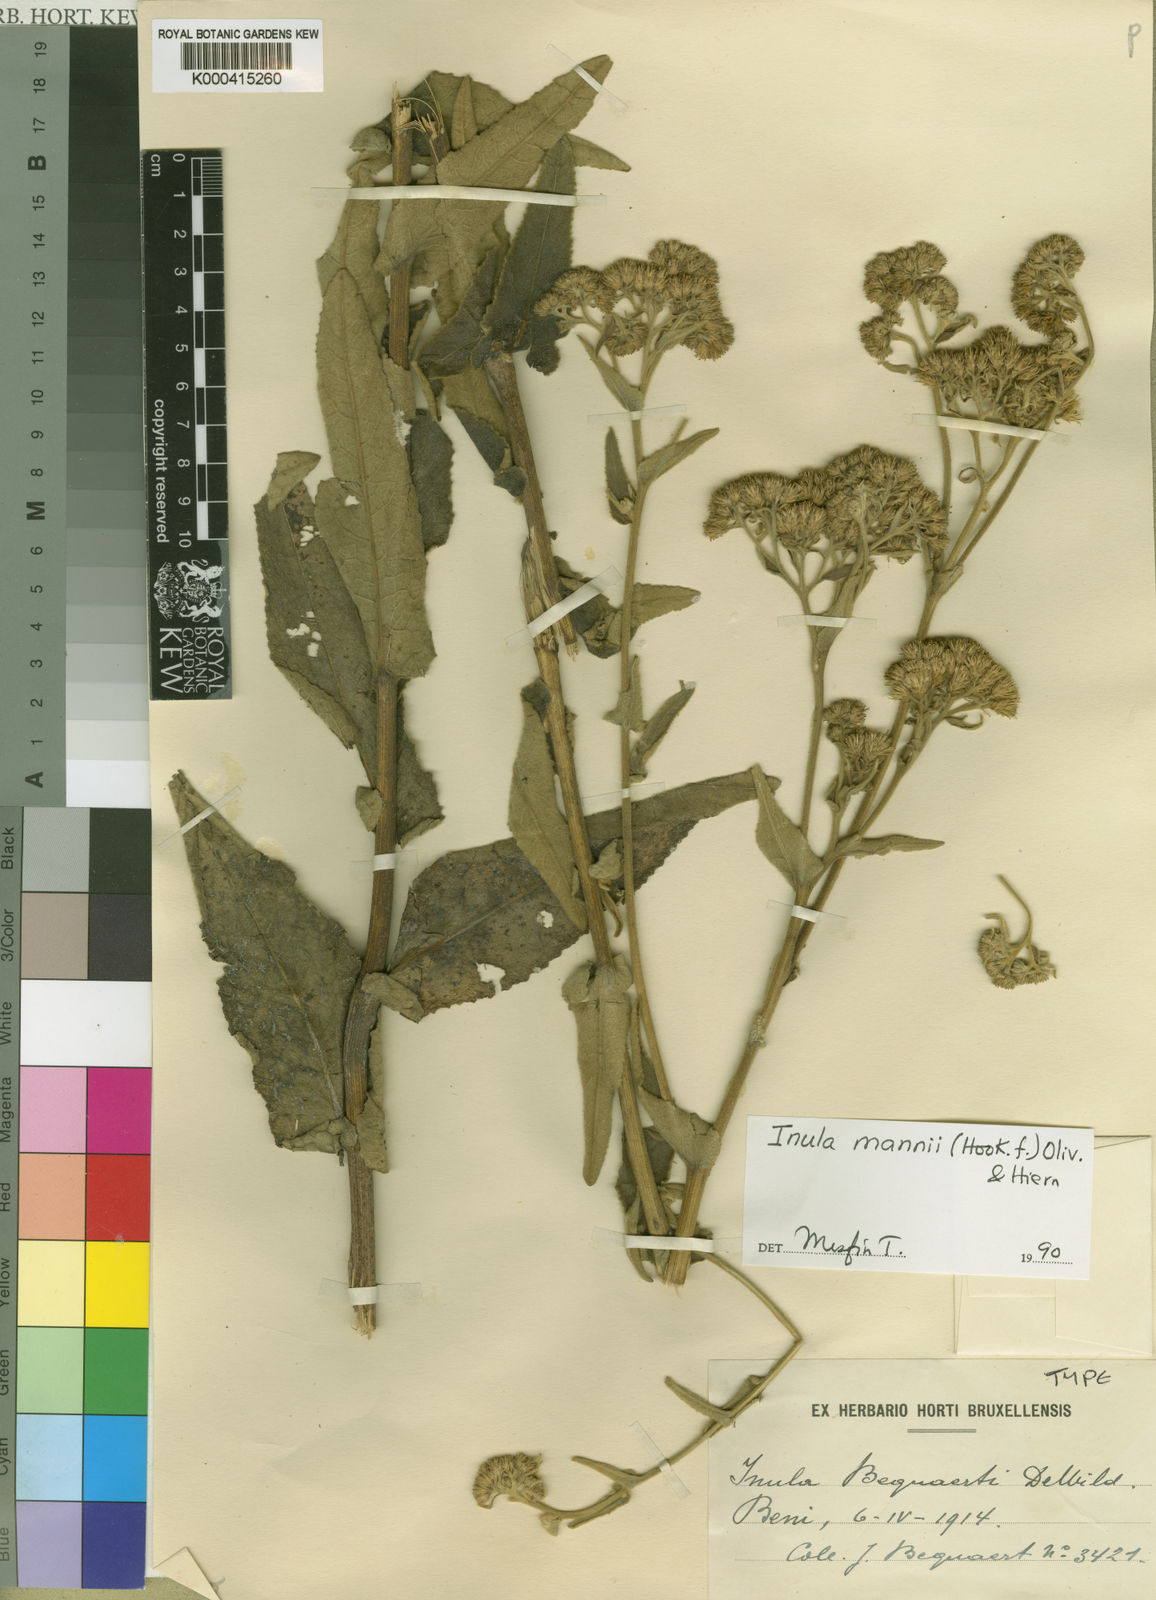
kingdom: Plantae
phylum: Tracheophyta
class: Magnoliopsida
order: Asterales
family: Asteraceae
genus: Monactinocephalus
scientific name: Monactinocephalus paniculatus
